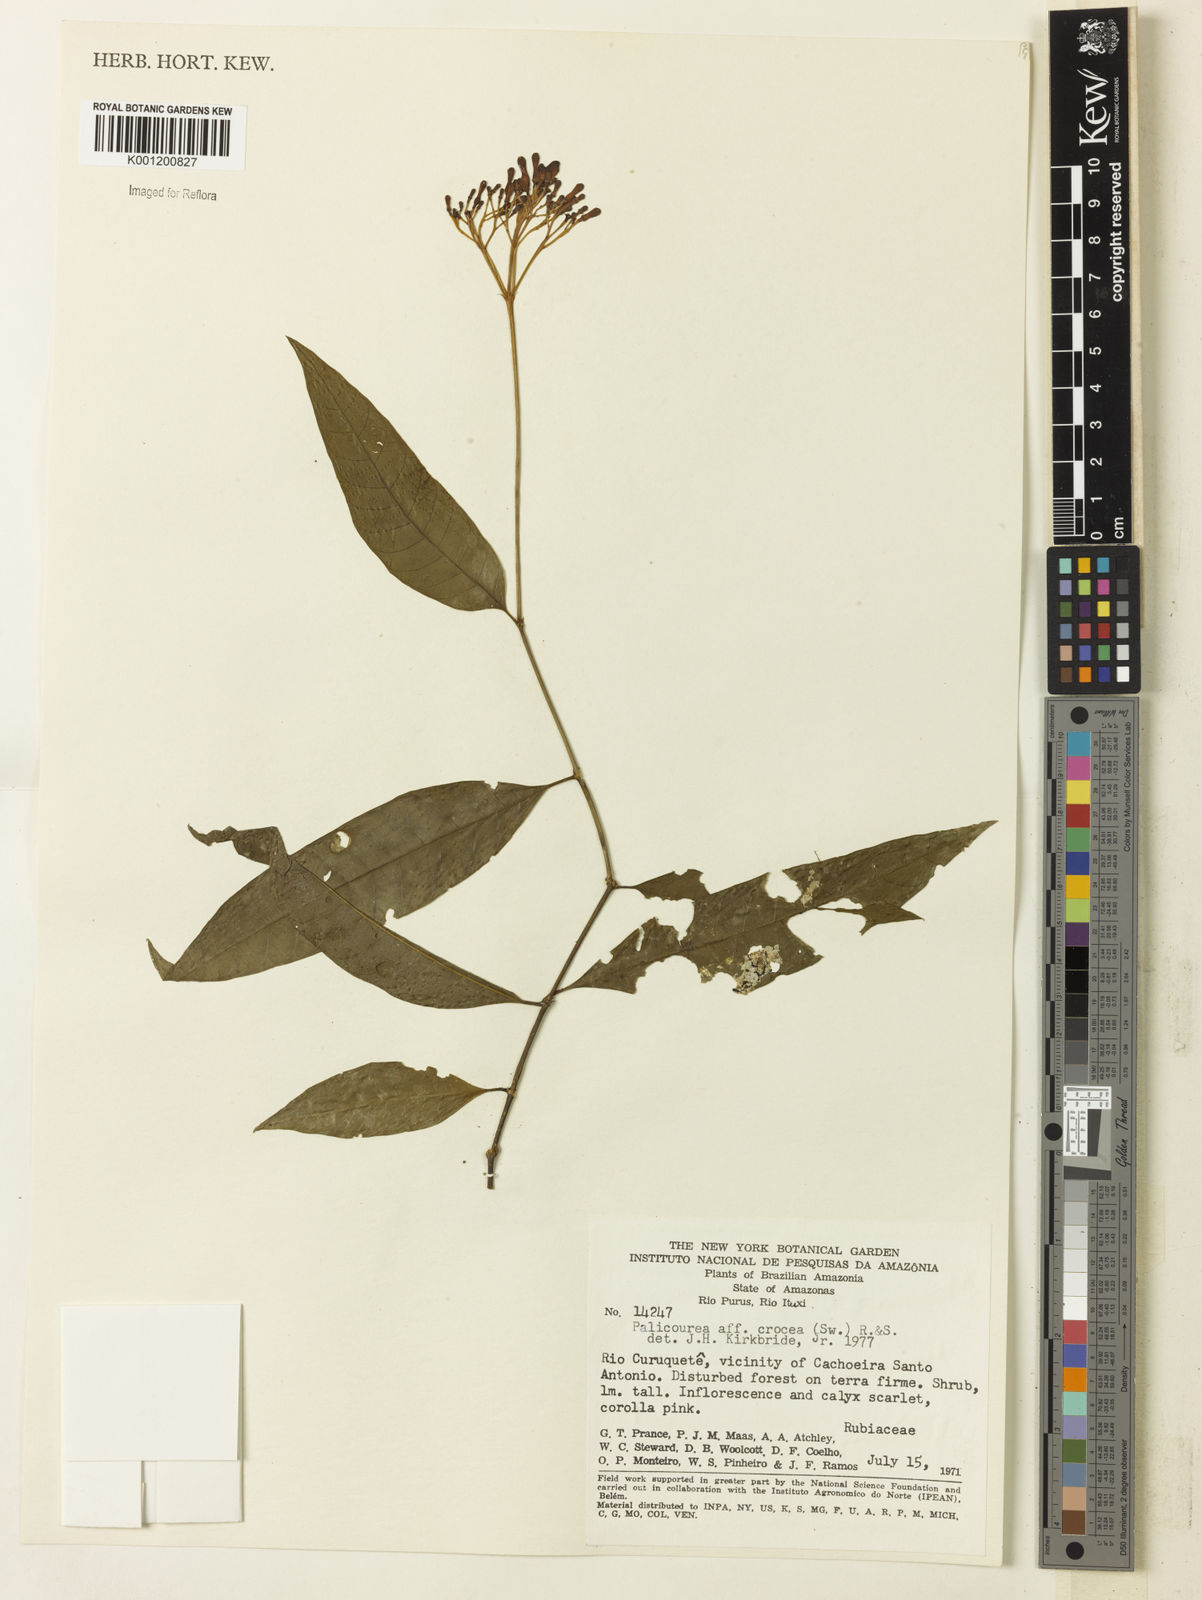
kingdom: Plantae
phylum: Tracheophyta
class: Magnoliopsida
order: Gentianales
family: Rubiaceae
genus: Palicourea
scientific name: Palicourea crocea
